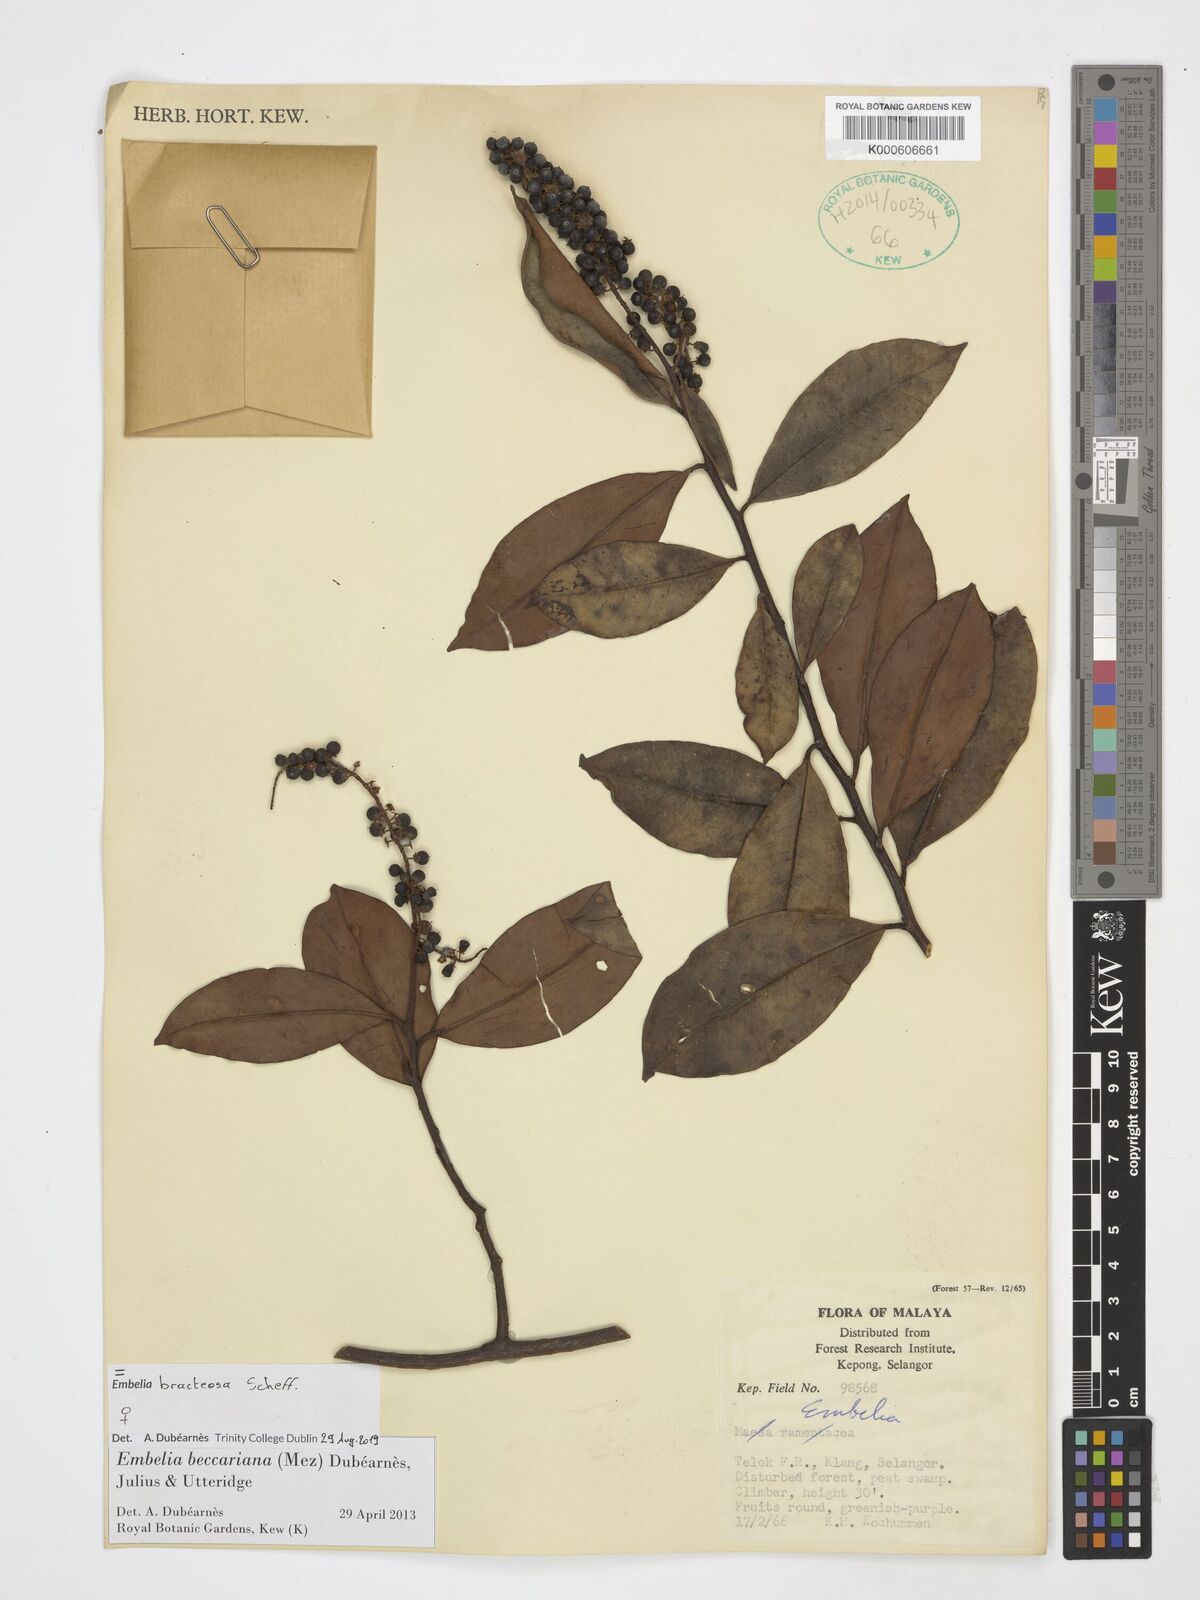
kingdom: Plantae
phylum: Tracheophyta
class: Magnoliopsida
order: Ericales
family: Primulaceae
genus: Grenacheria
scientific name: Grenacheria bracteosa
